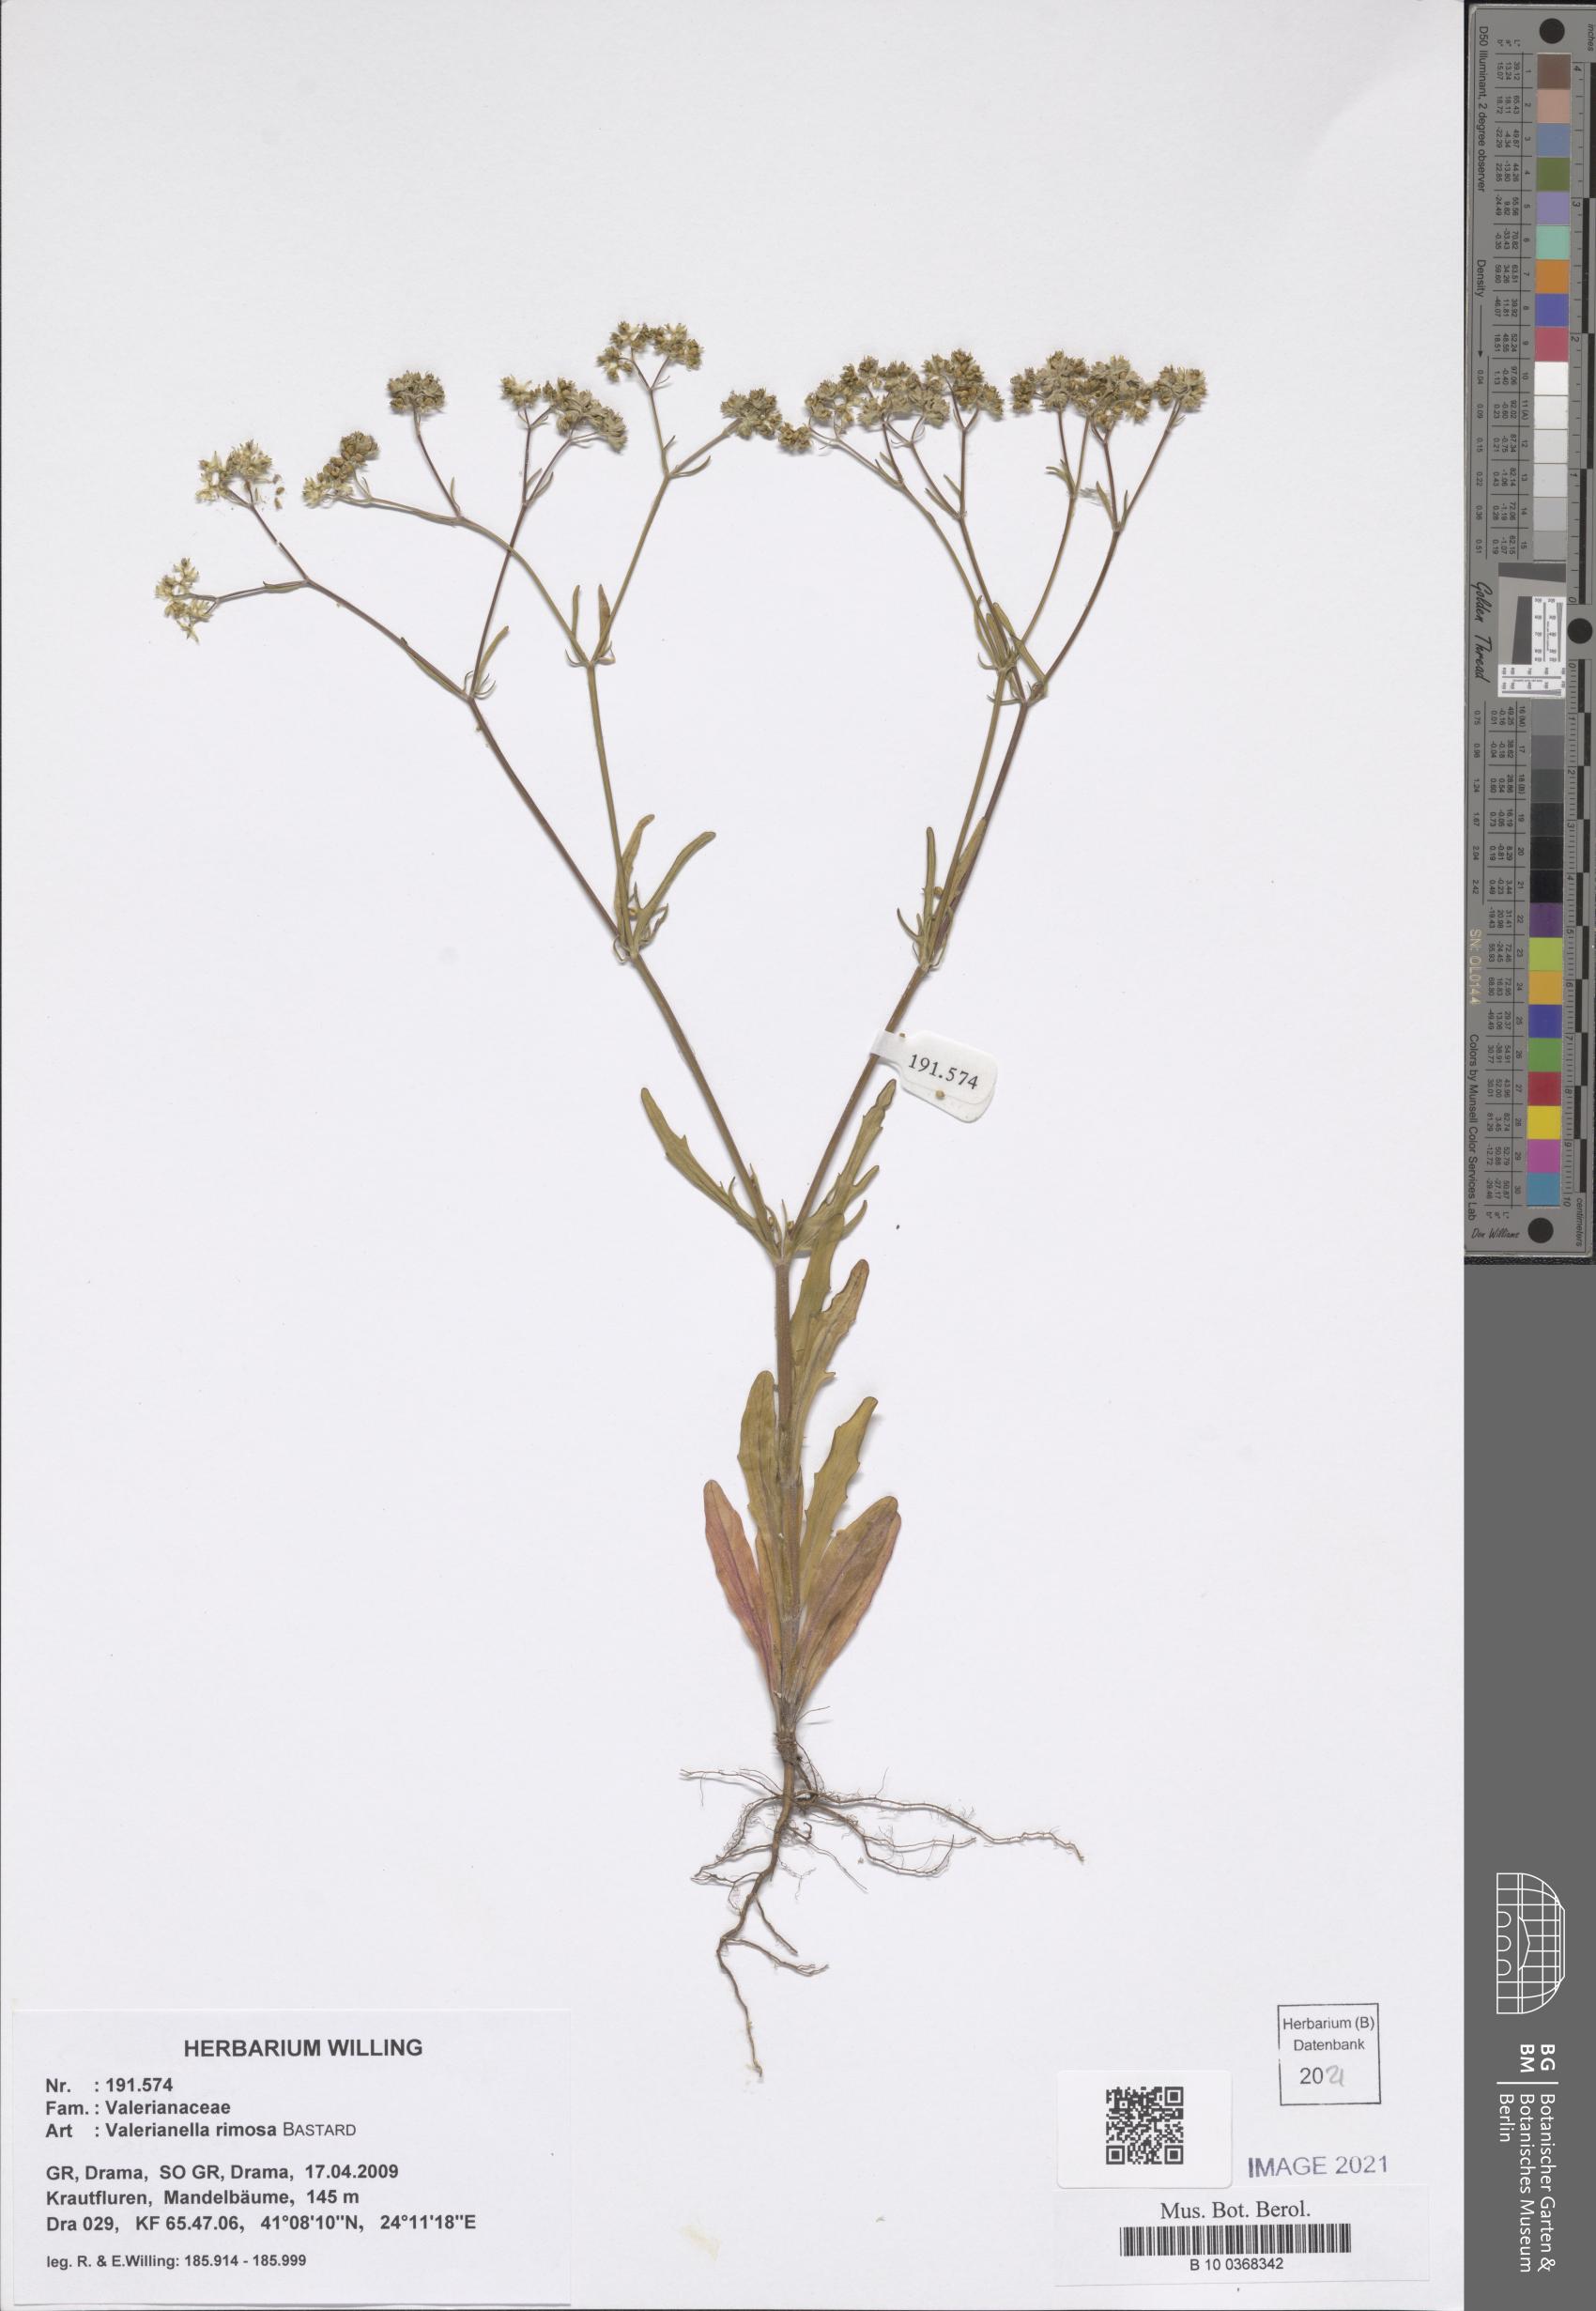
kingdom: Plantae
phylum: Tracheophyta
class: Magnoliopsida
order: Dipsacales
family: Caprifoliaceae
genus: Valerianella
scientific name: Valerianella rimosa
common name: Broad-fruited cornsalad
